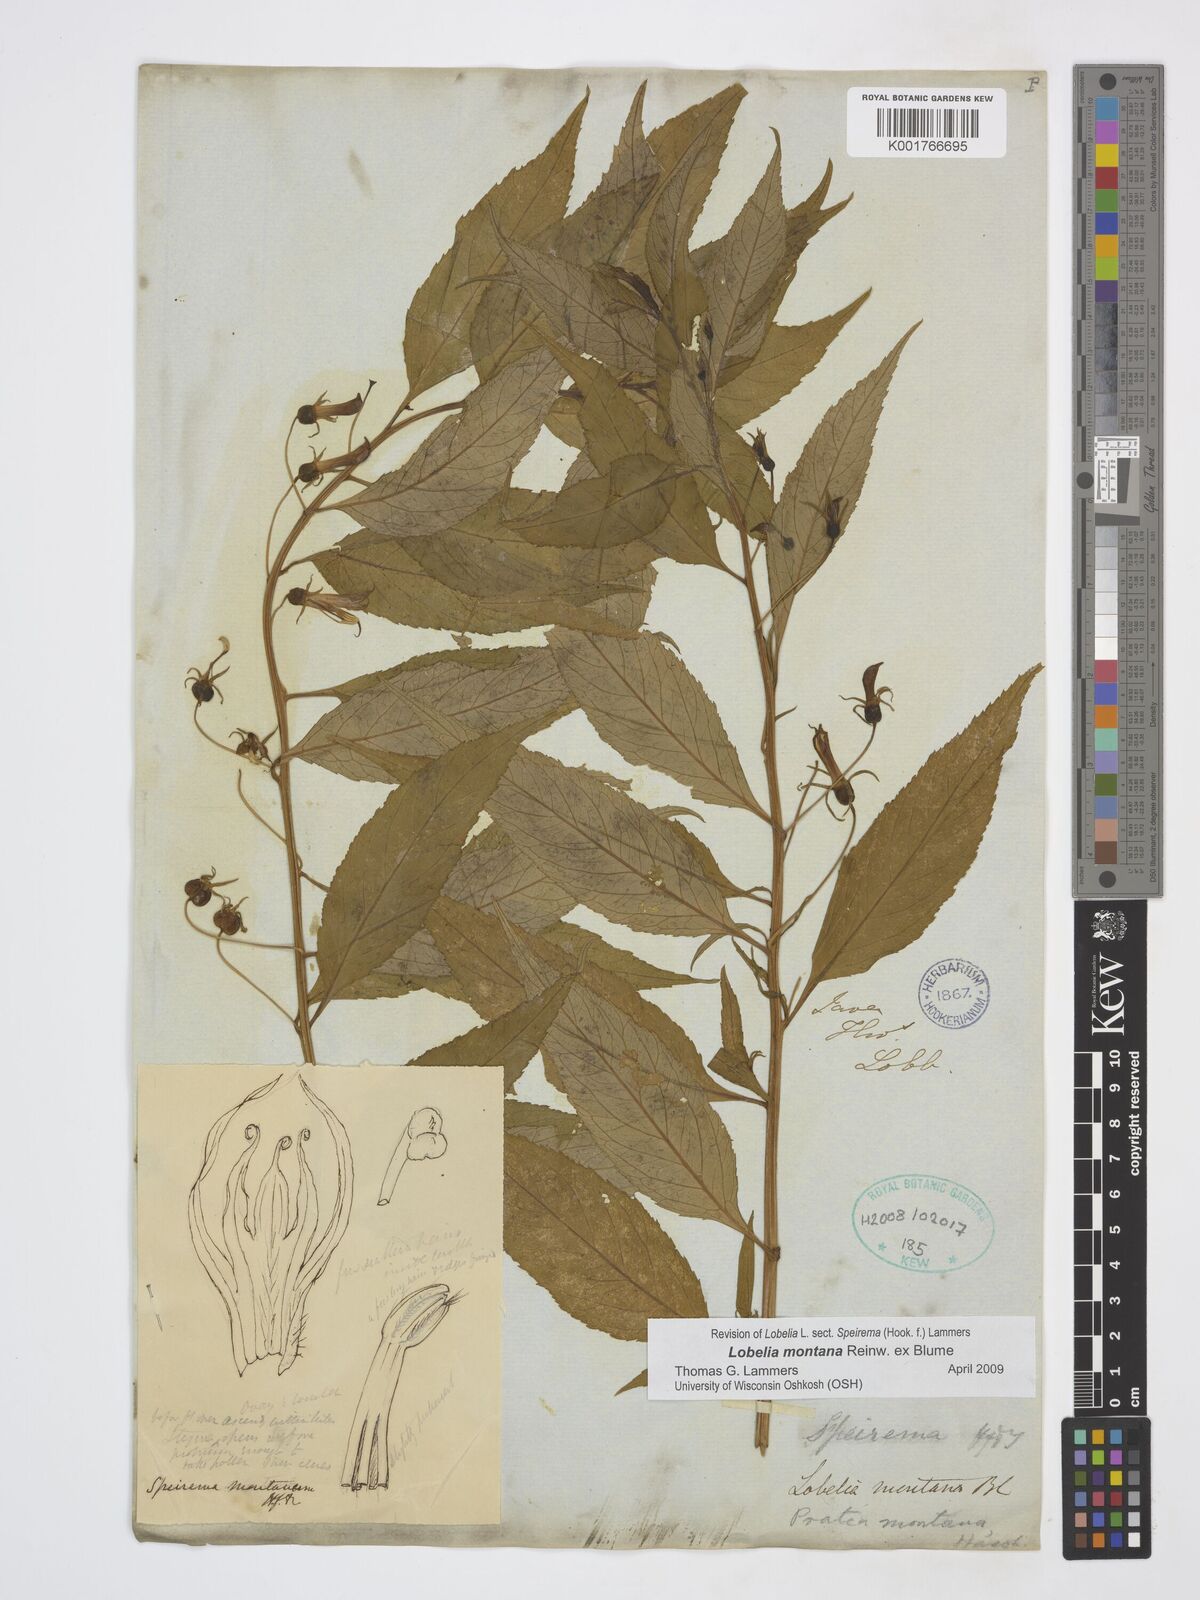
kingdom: Plantae
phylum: Tracheophyta
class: Magnoliopsida
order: Asterales
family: Campanulaceae
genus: Lobelia
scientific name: Lobelia montana
